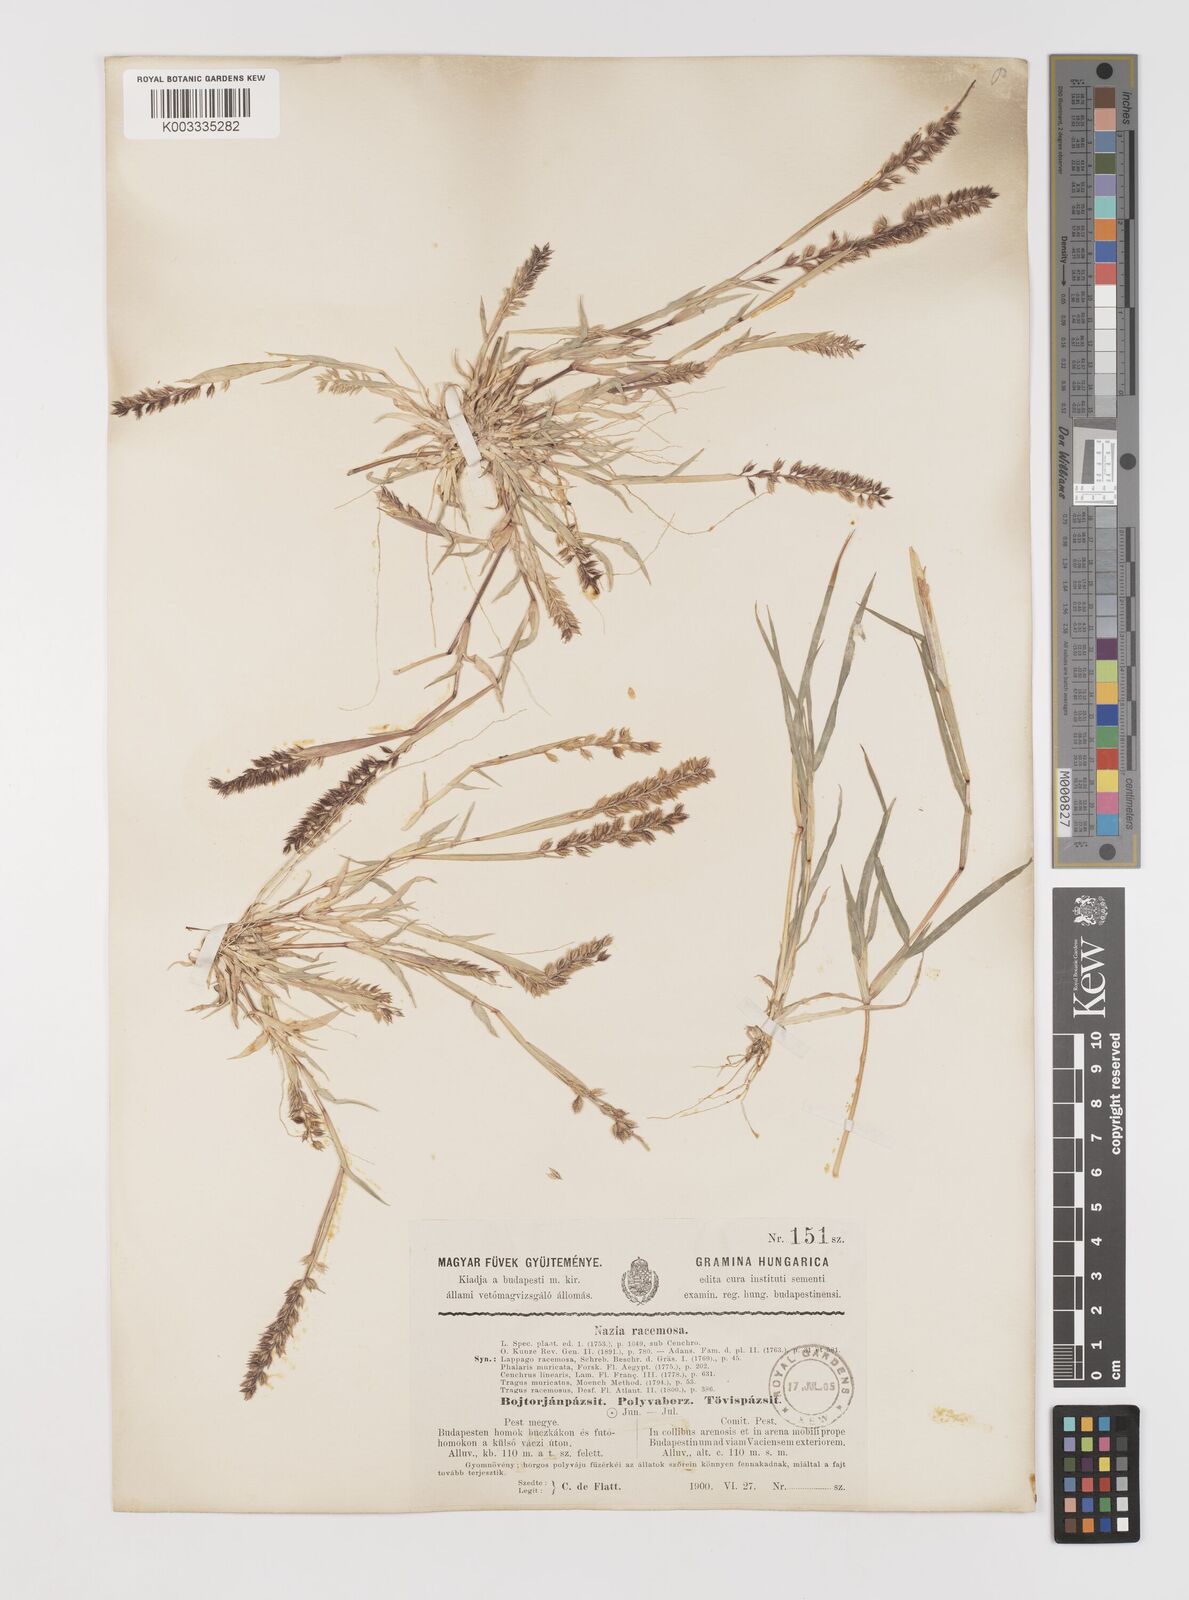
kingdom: Plantae
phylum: Tracheophyta
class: Liliopsida
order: Poales
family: Poaceae
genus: Tragus
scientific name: Tragus racemosus
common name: European bur-grass
